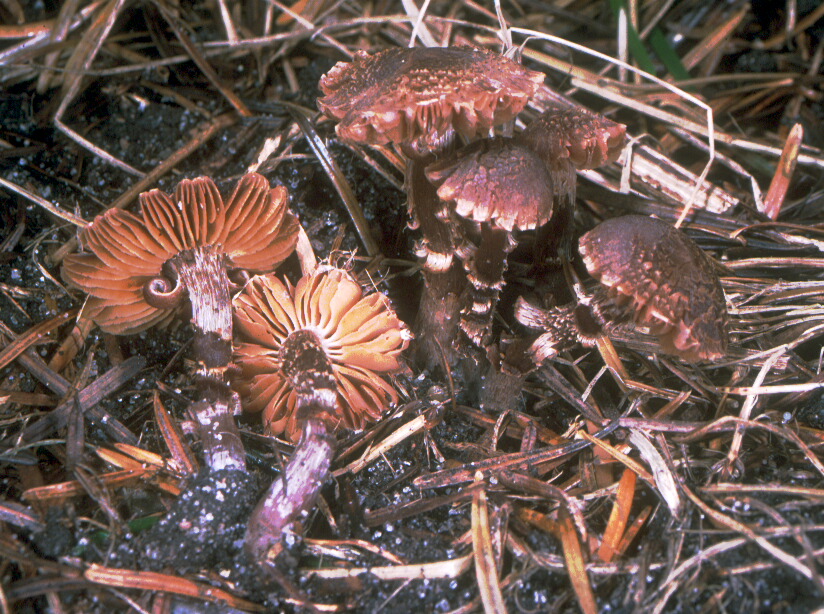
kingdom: Fungi
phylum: Basidiomycota
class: Agaricomycetes
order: Agaricales
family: Cortinariaceae
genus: Cortinarius
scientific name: Cortinarius
